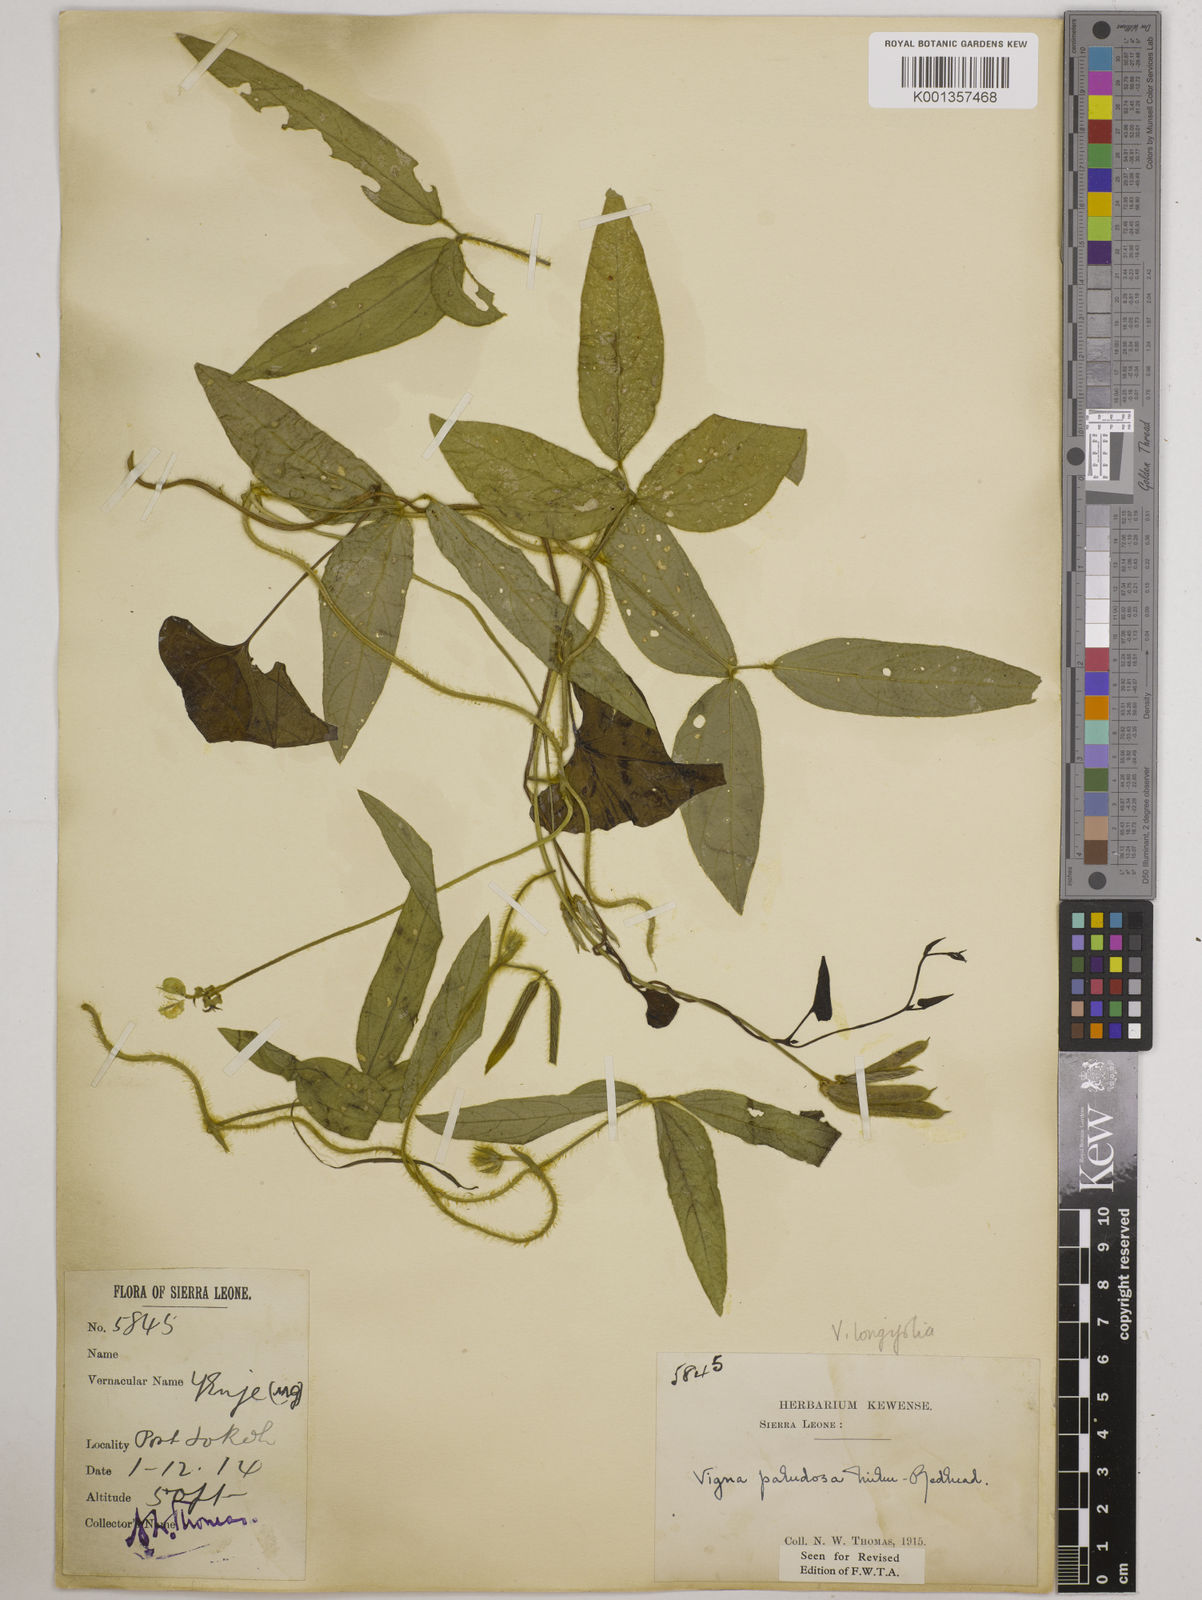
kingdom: Plantae
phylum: Tracheophyta
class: Magnoliopsida
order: Fabales
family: Fabaceae
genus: Vigna
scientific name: Vigna longifolia
